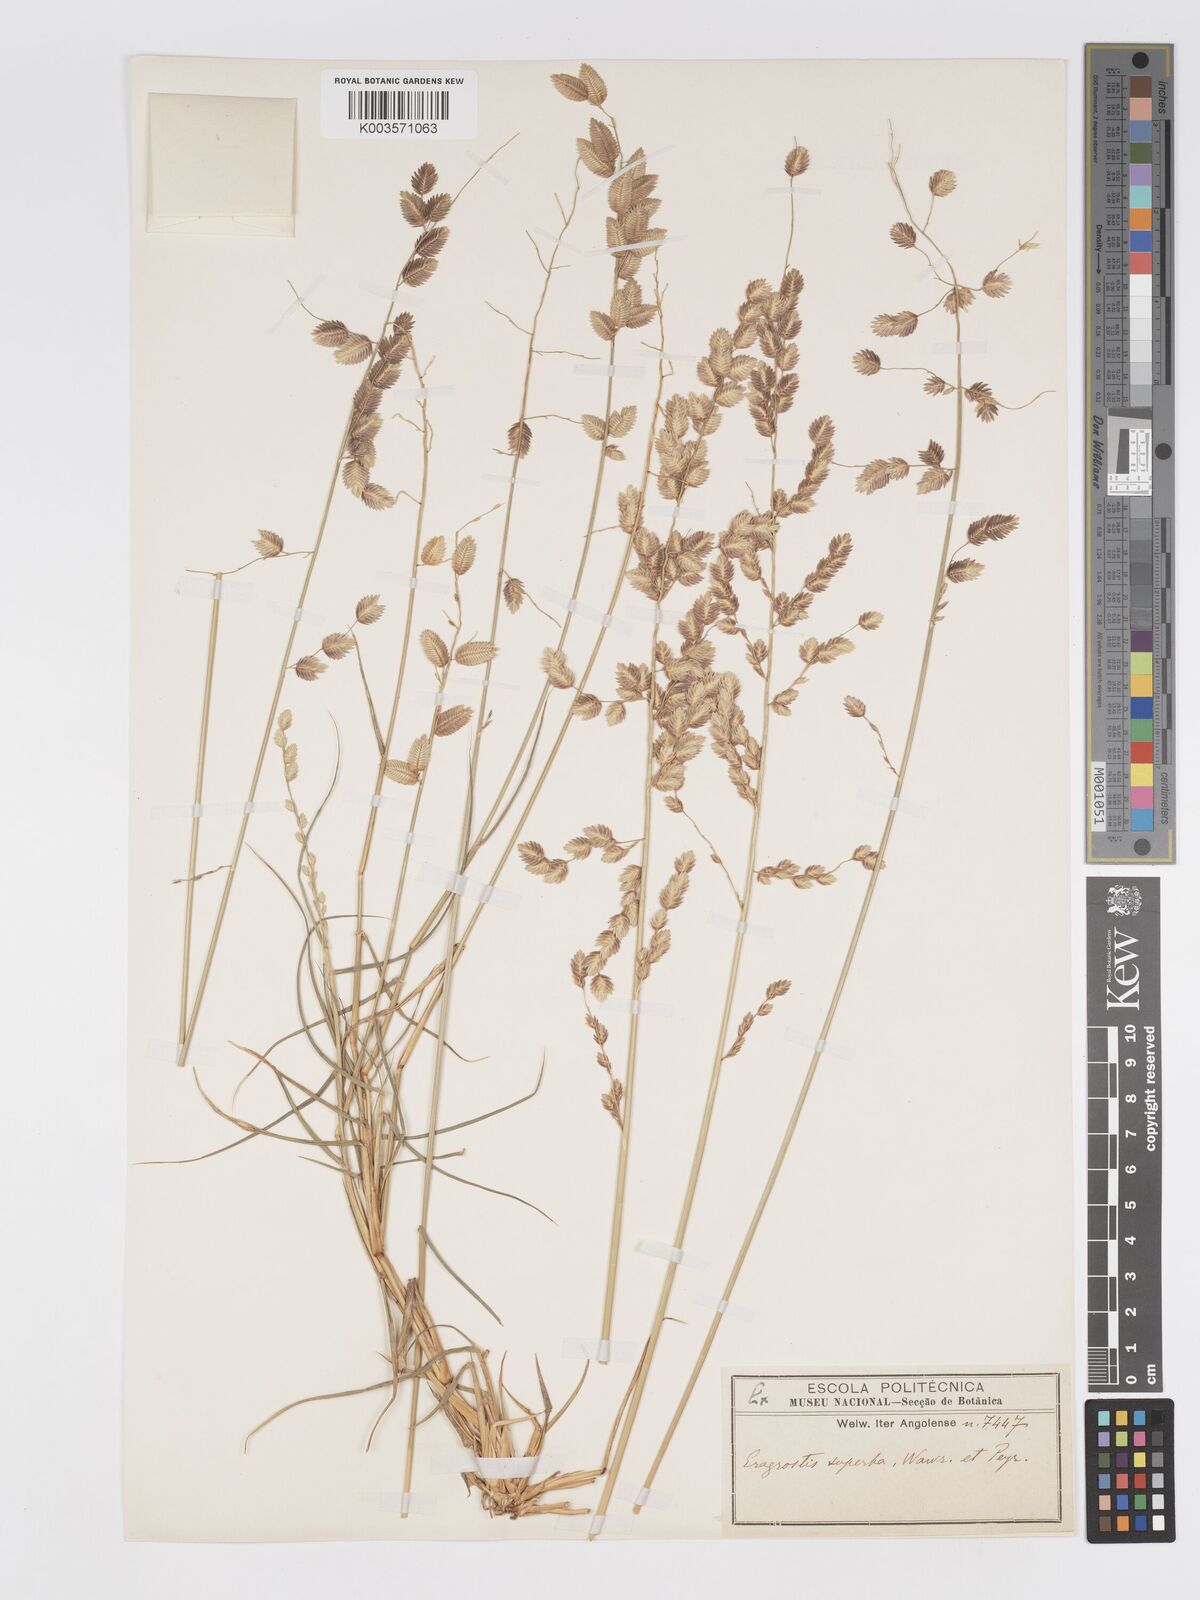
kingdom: Plantae
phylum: Tracheophyta
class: Liliopsida
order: Poales
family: Poaceae
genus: Eragrostis
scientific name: Eragrostis superba
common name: Wilman lovegrass
